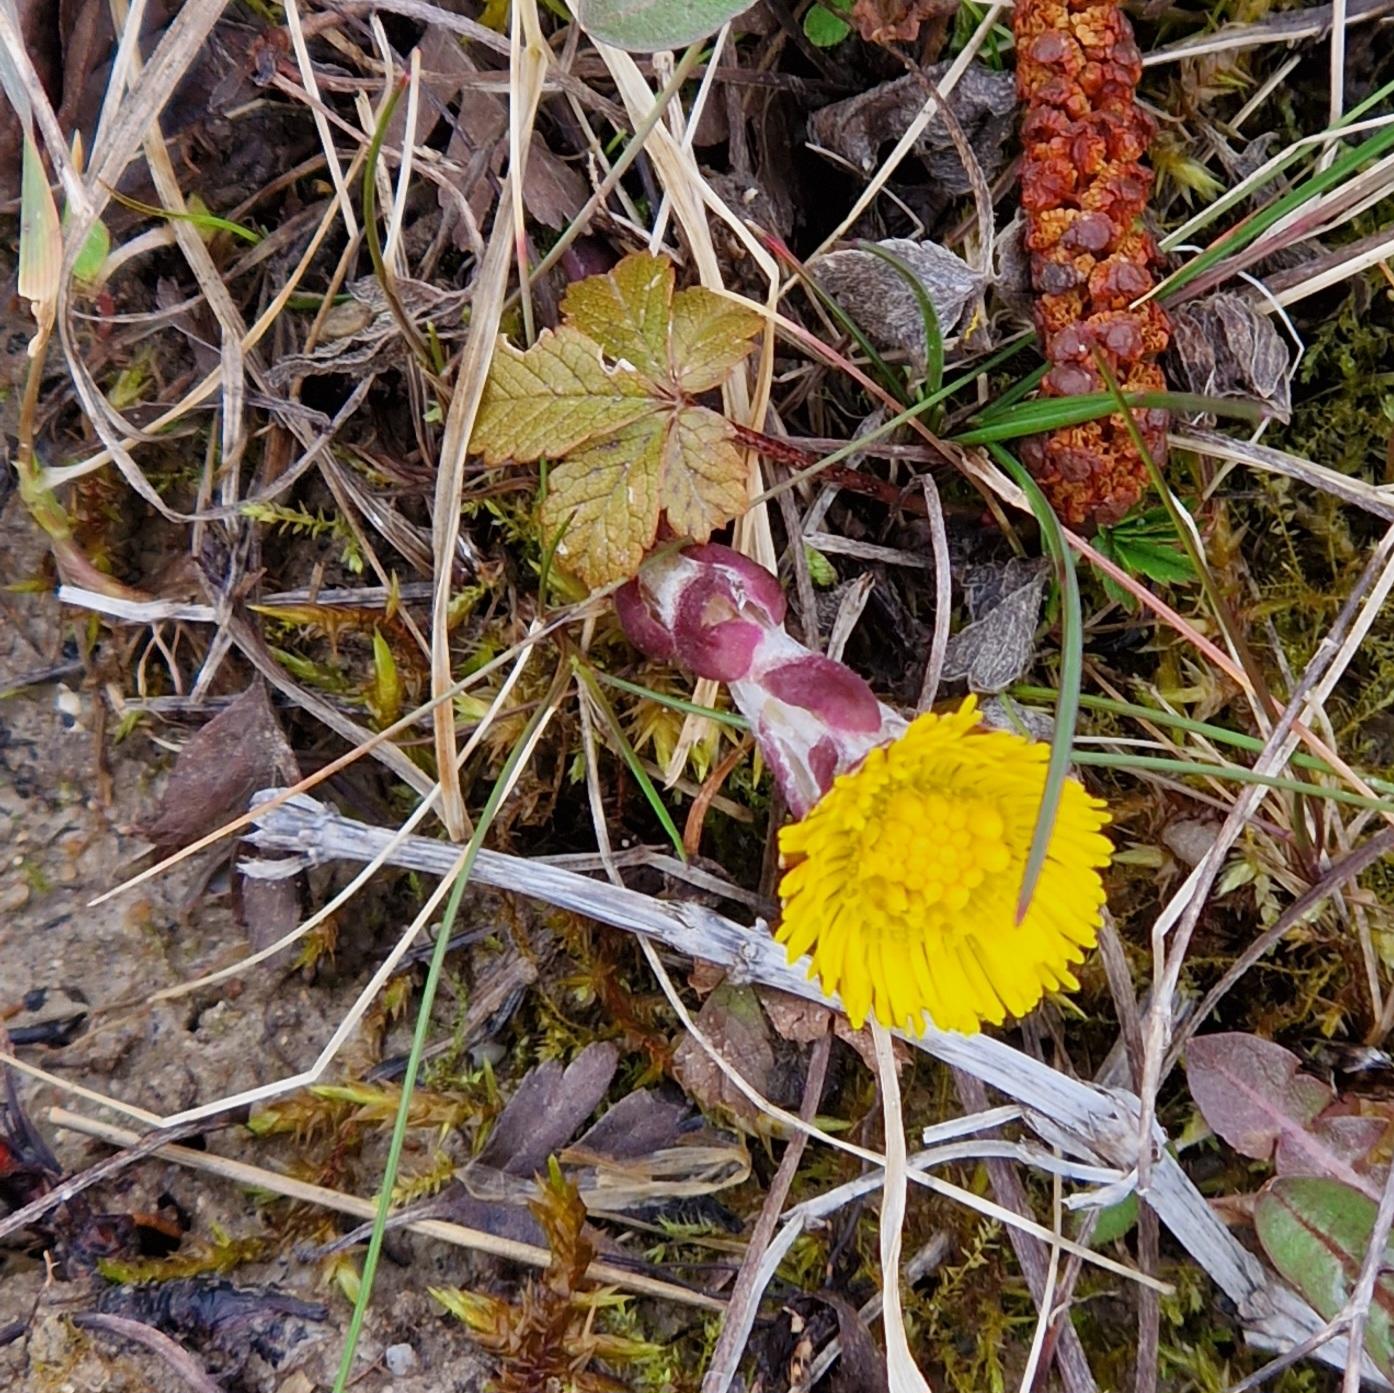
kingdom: Plantae
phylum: Tracheophyta
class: Magnoliopsida
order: Asterales
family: Asteraceae
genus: Tussilago
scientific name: Tussilago farfara
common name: Følfod
